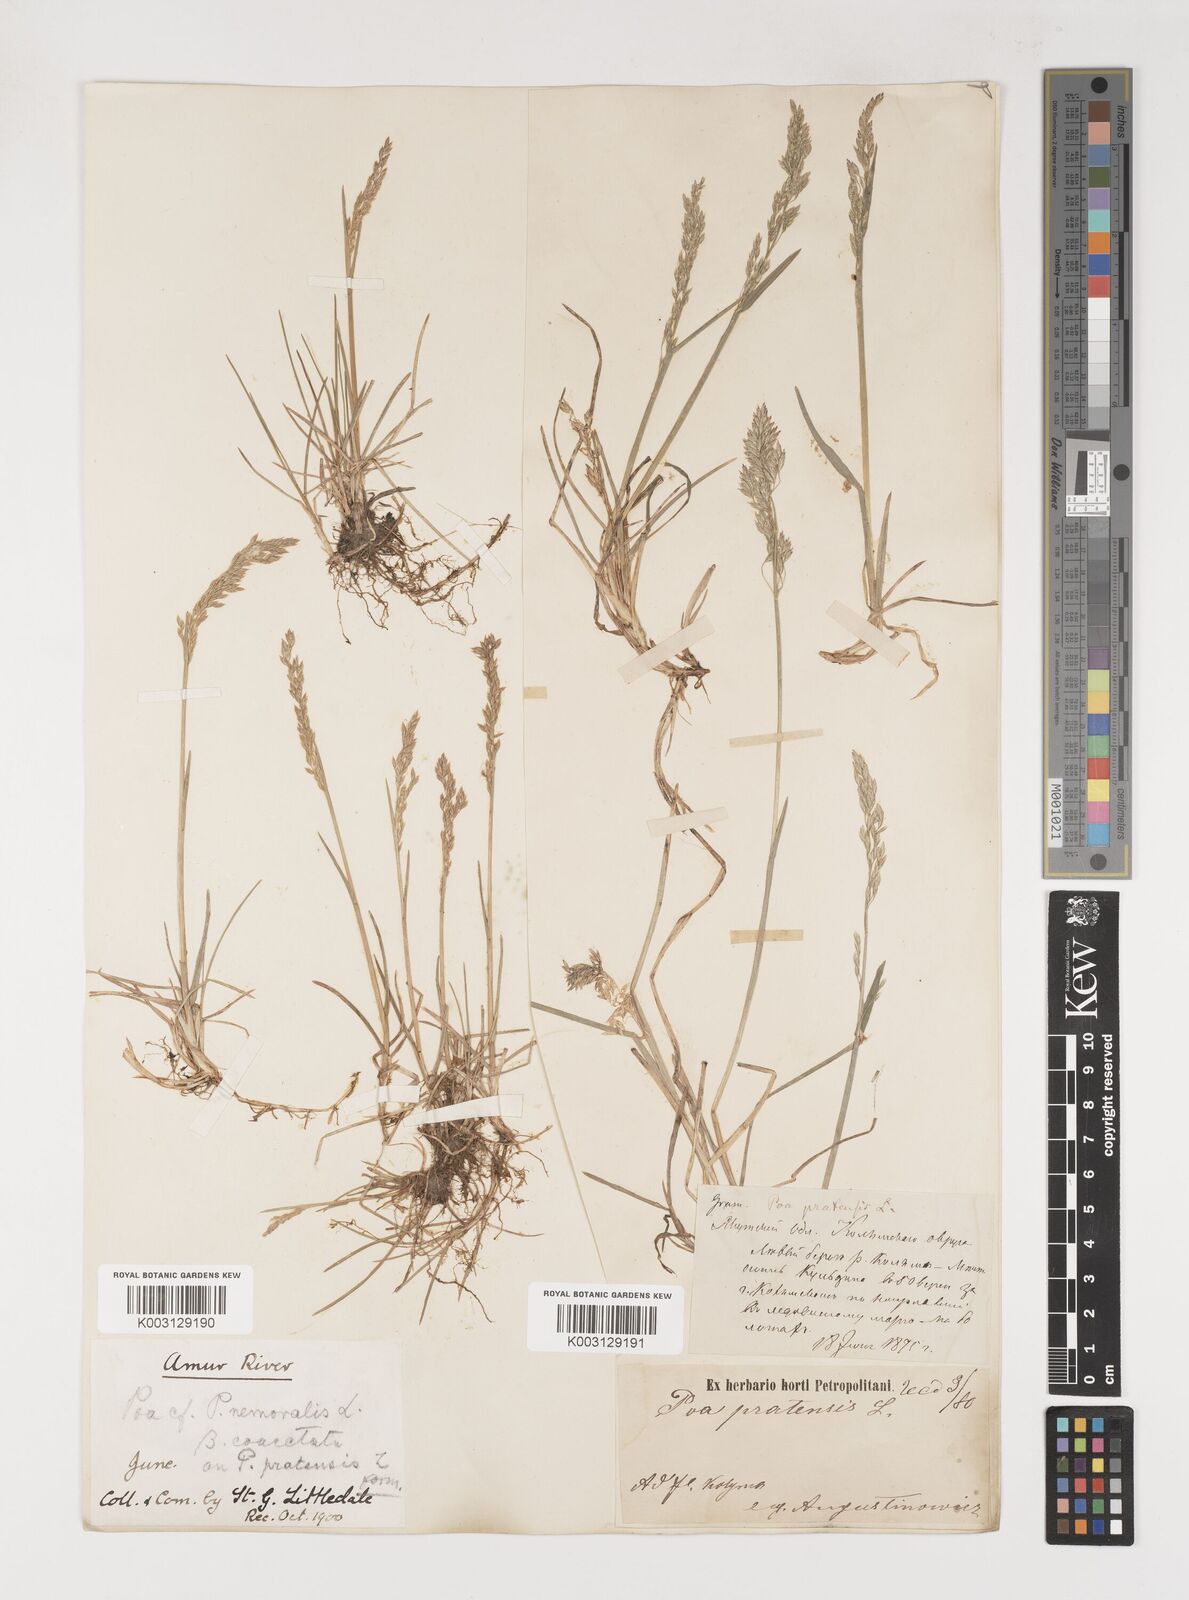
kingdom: Plantae
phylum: Tracheophyta
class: Liliopsida
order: Poales
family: Poaceae
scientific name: Poaceae
